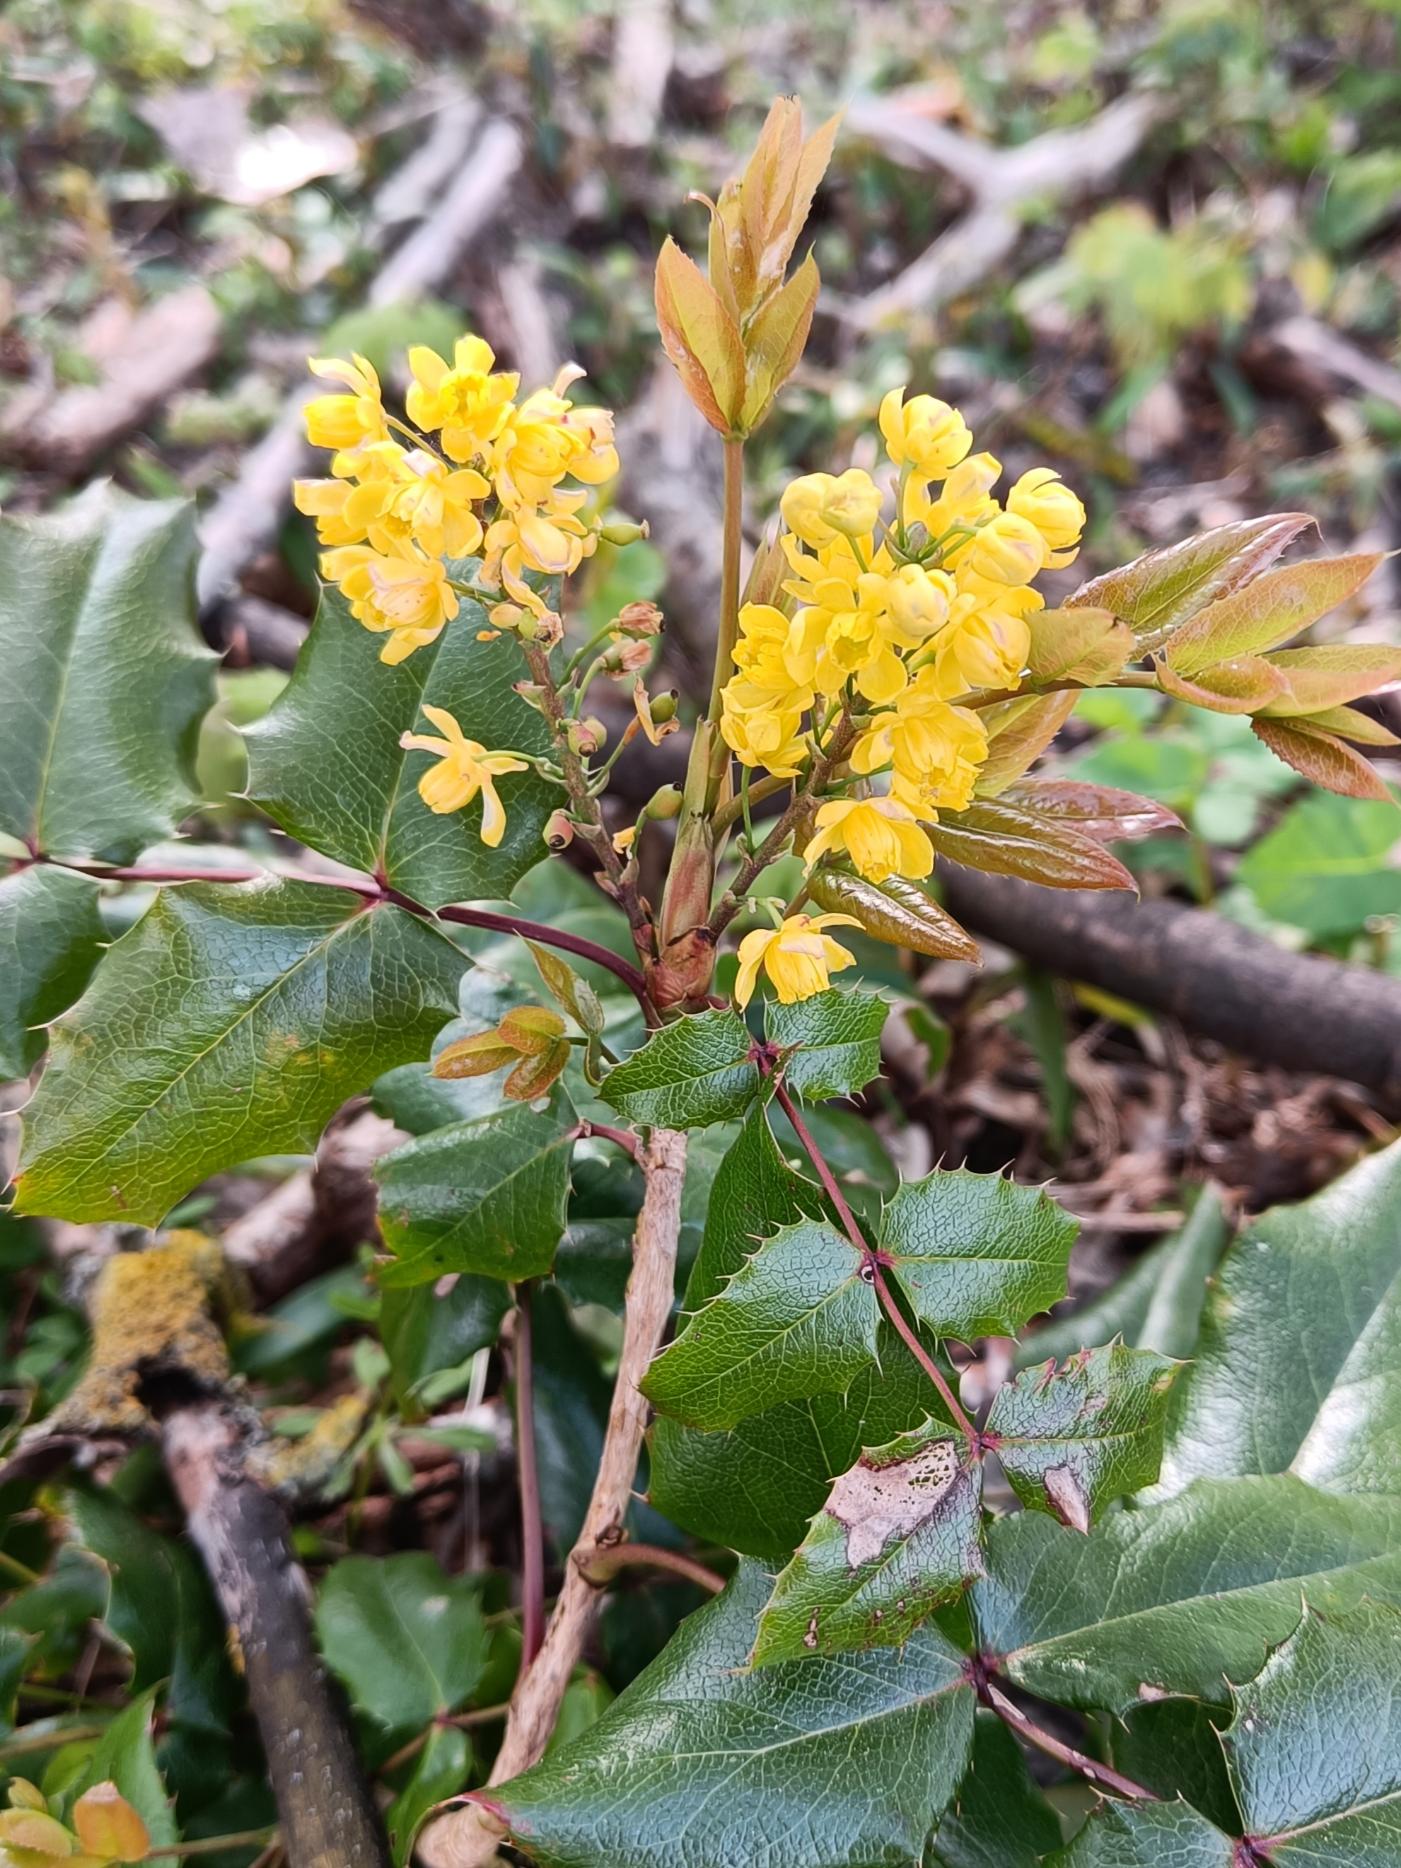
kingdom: Plantae
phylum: Tracheophyta
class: Magnoliopsida
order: Ranunculales
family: Berberidaceae
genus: Mahonia
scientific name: Mahonia aquifolium
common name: Almindelig mahonie
